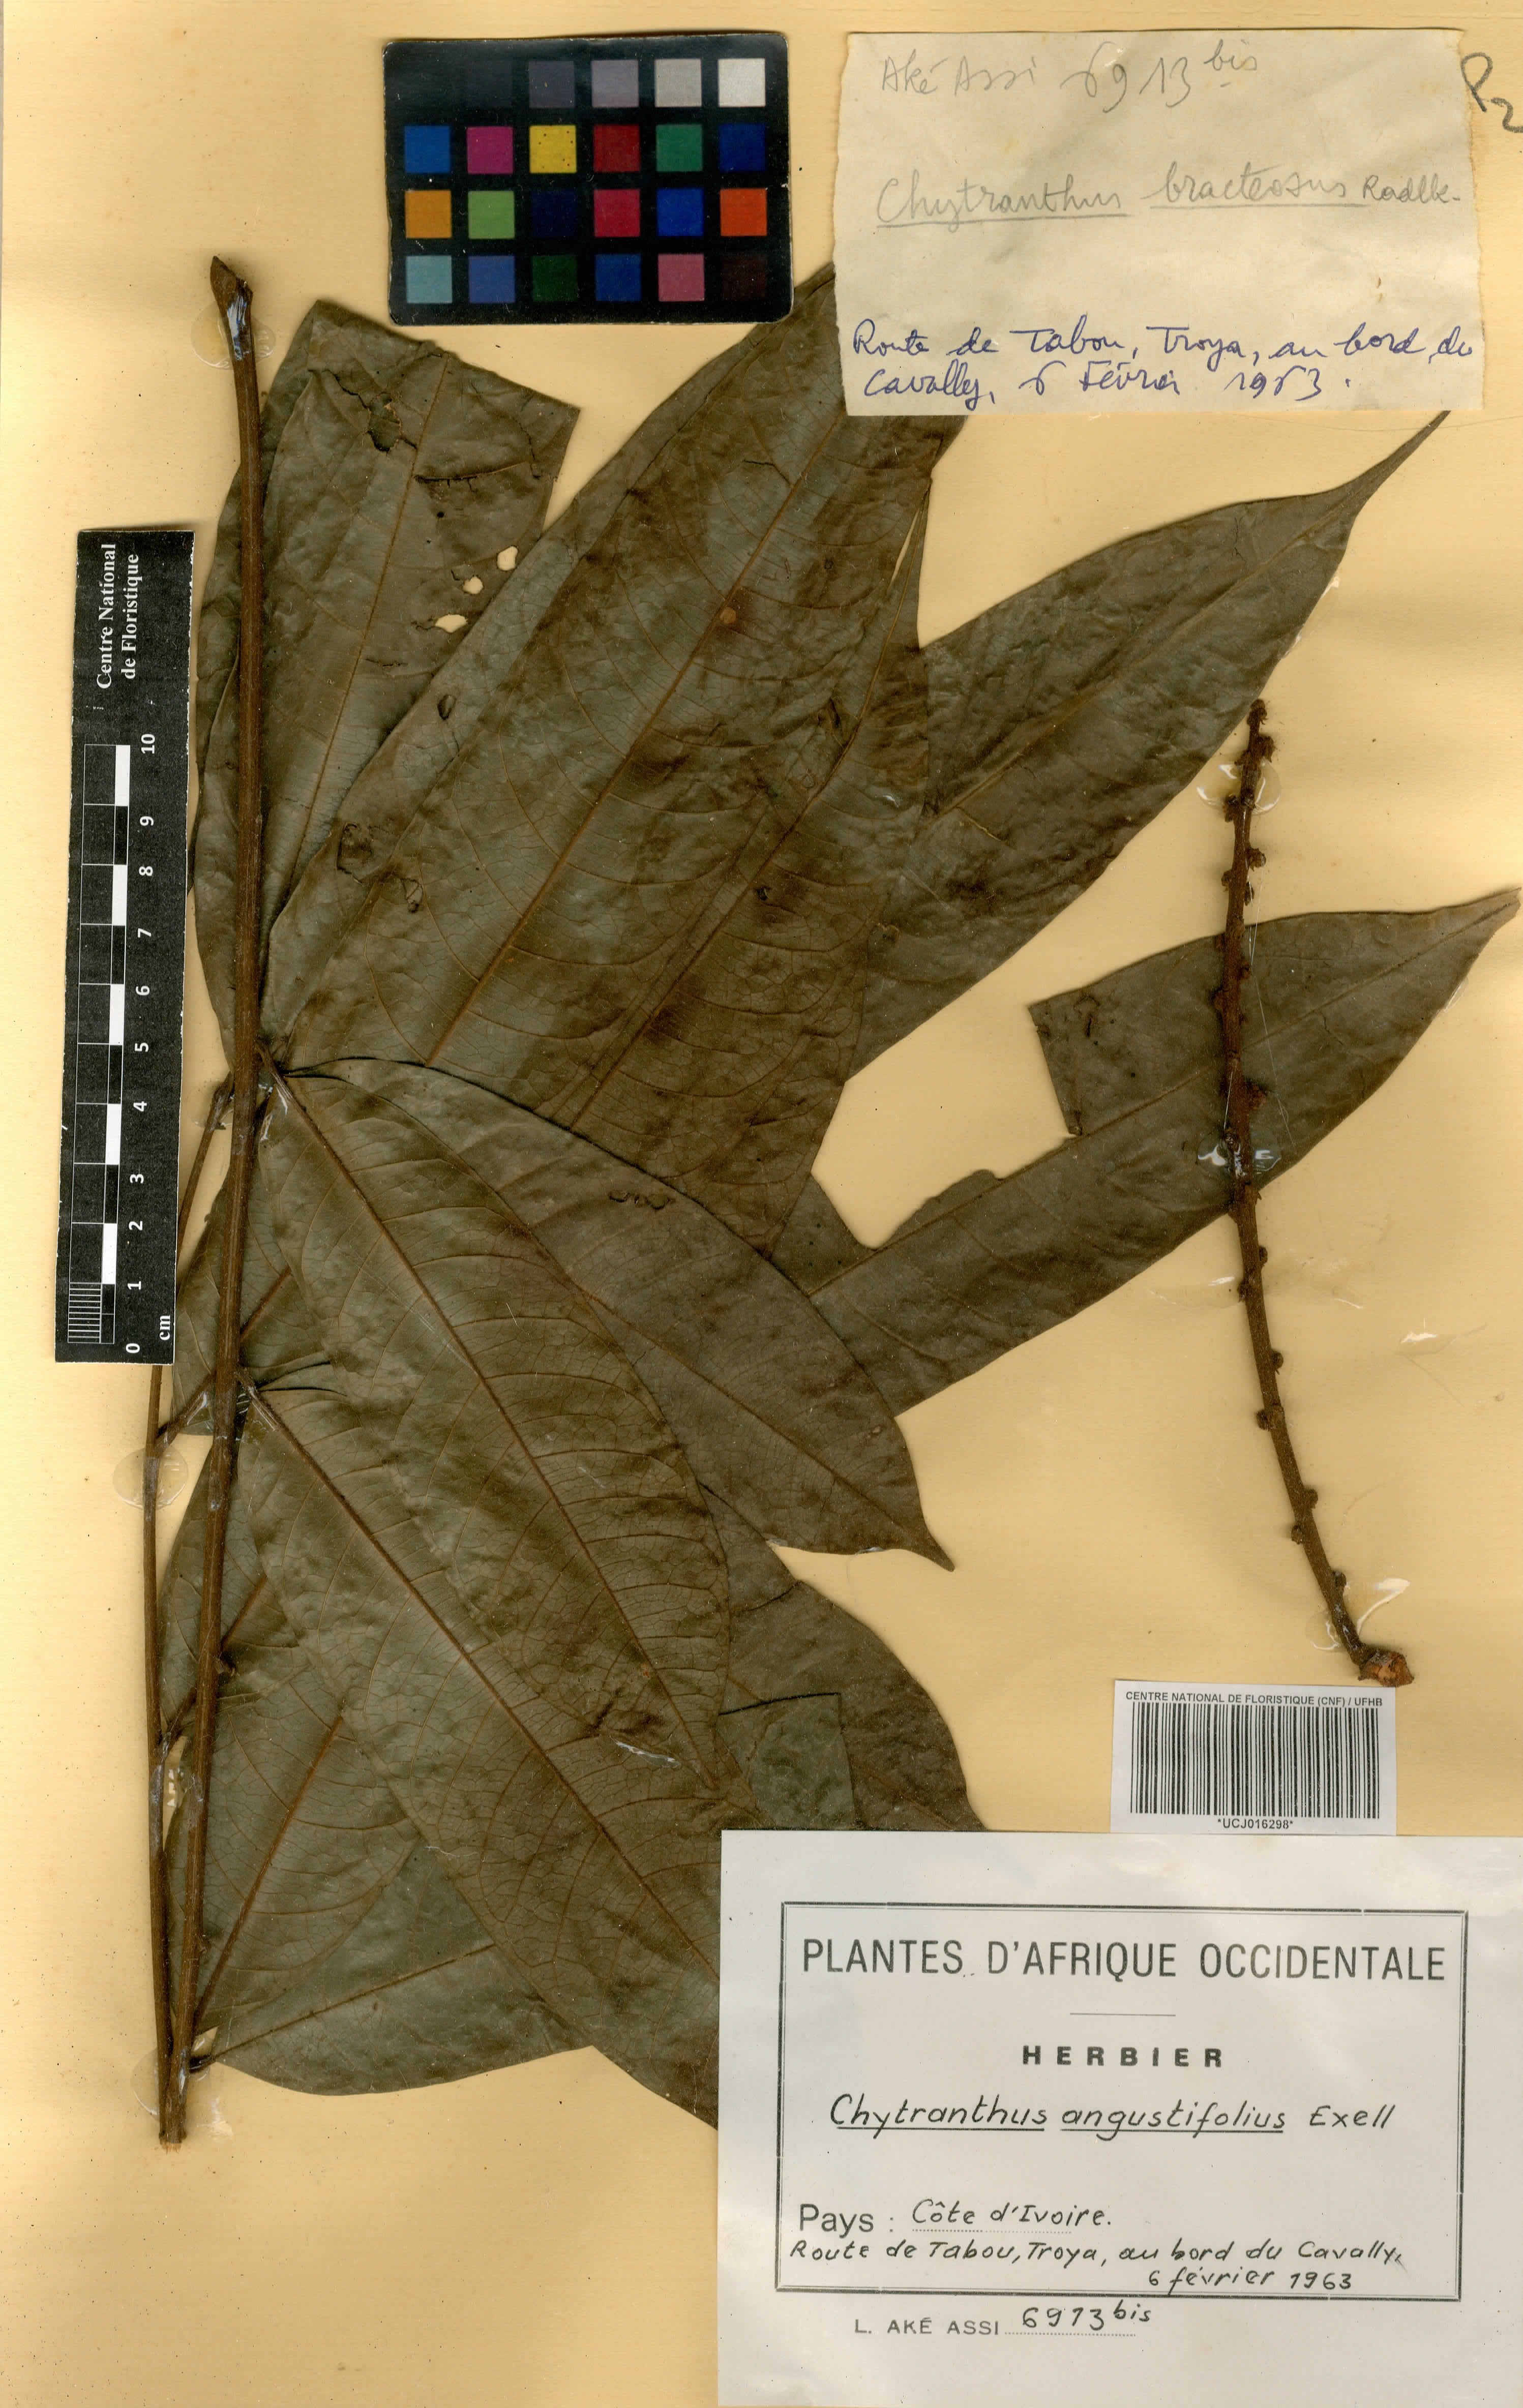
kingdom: Plantae
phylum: Tracheophyta
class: Magnoliopsida
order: Sapindales
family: Sapindaceae
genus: Chytranthus
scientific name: Chytranthus angustifolius
